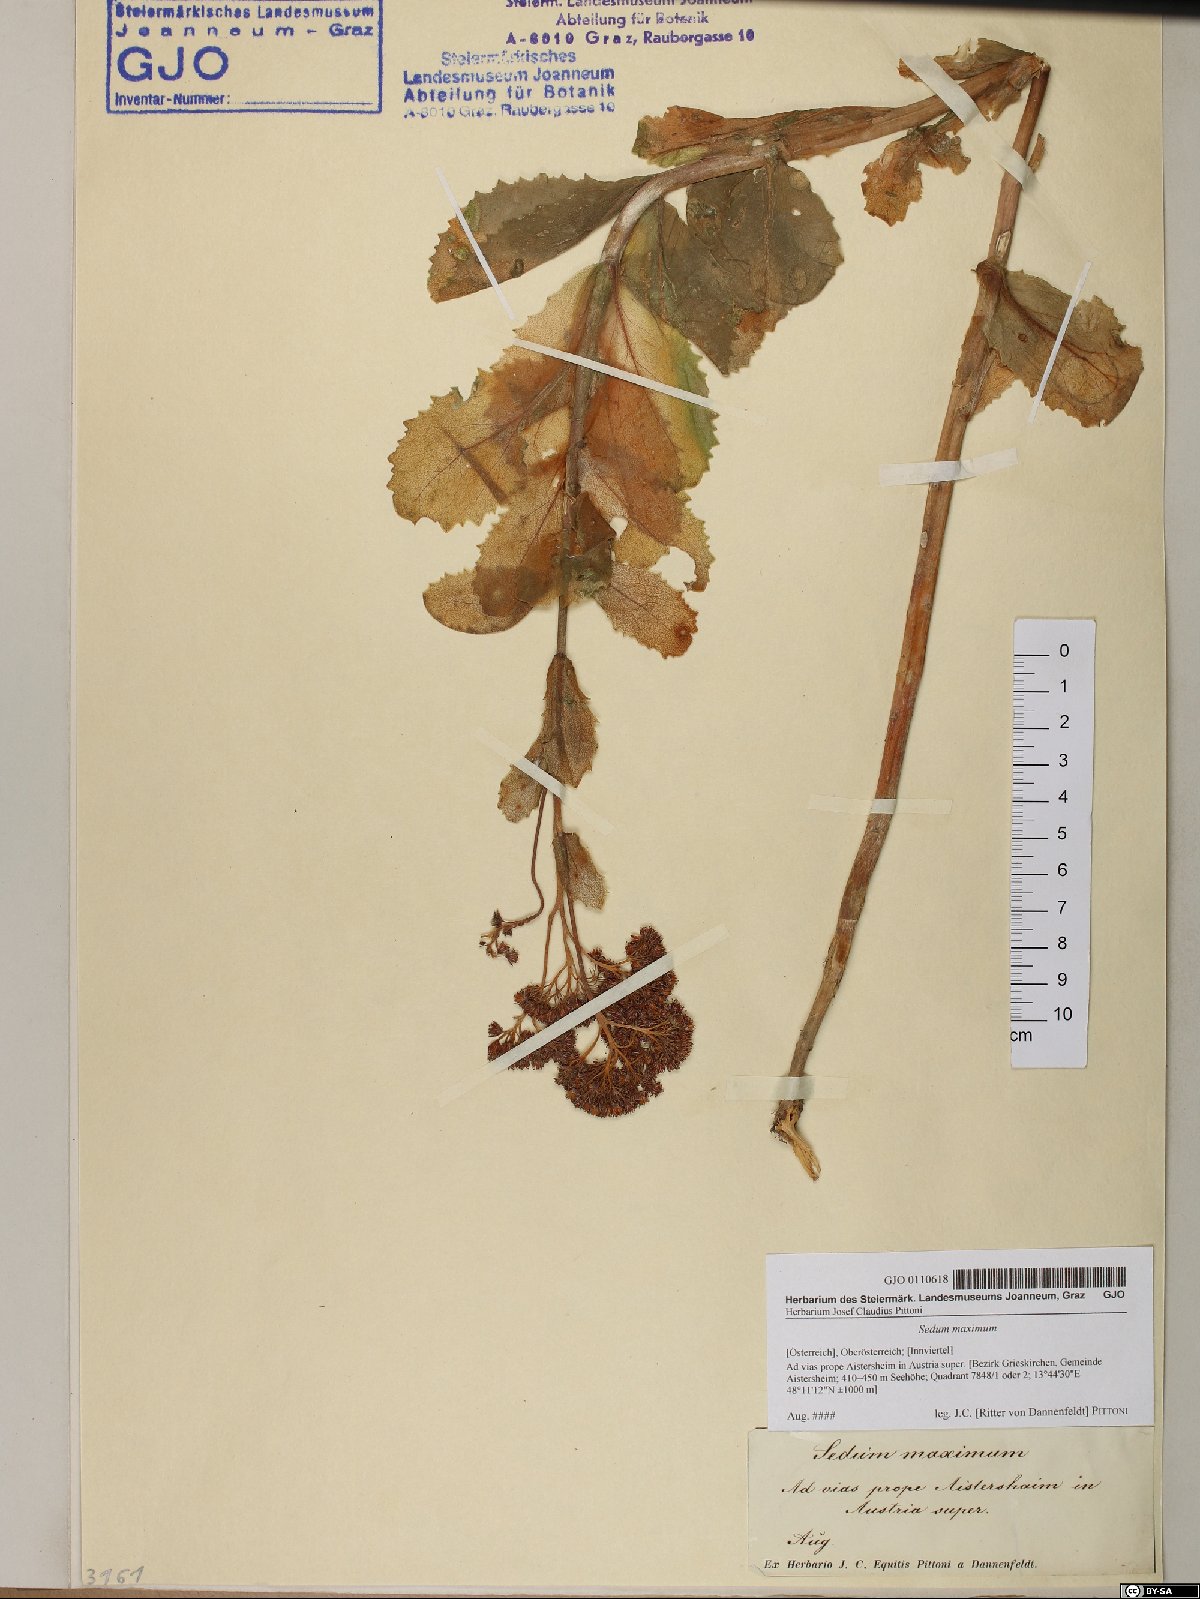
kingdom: Plantae
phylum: Tracheophyta
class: Magnoliopsida
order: Saxifragales
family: Crassulaceae
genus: Hylotelephium
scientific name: Hylotelephium maximum
